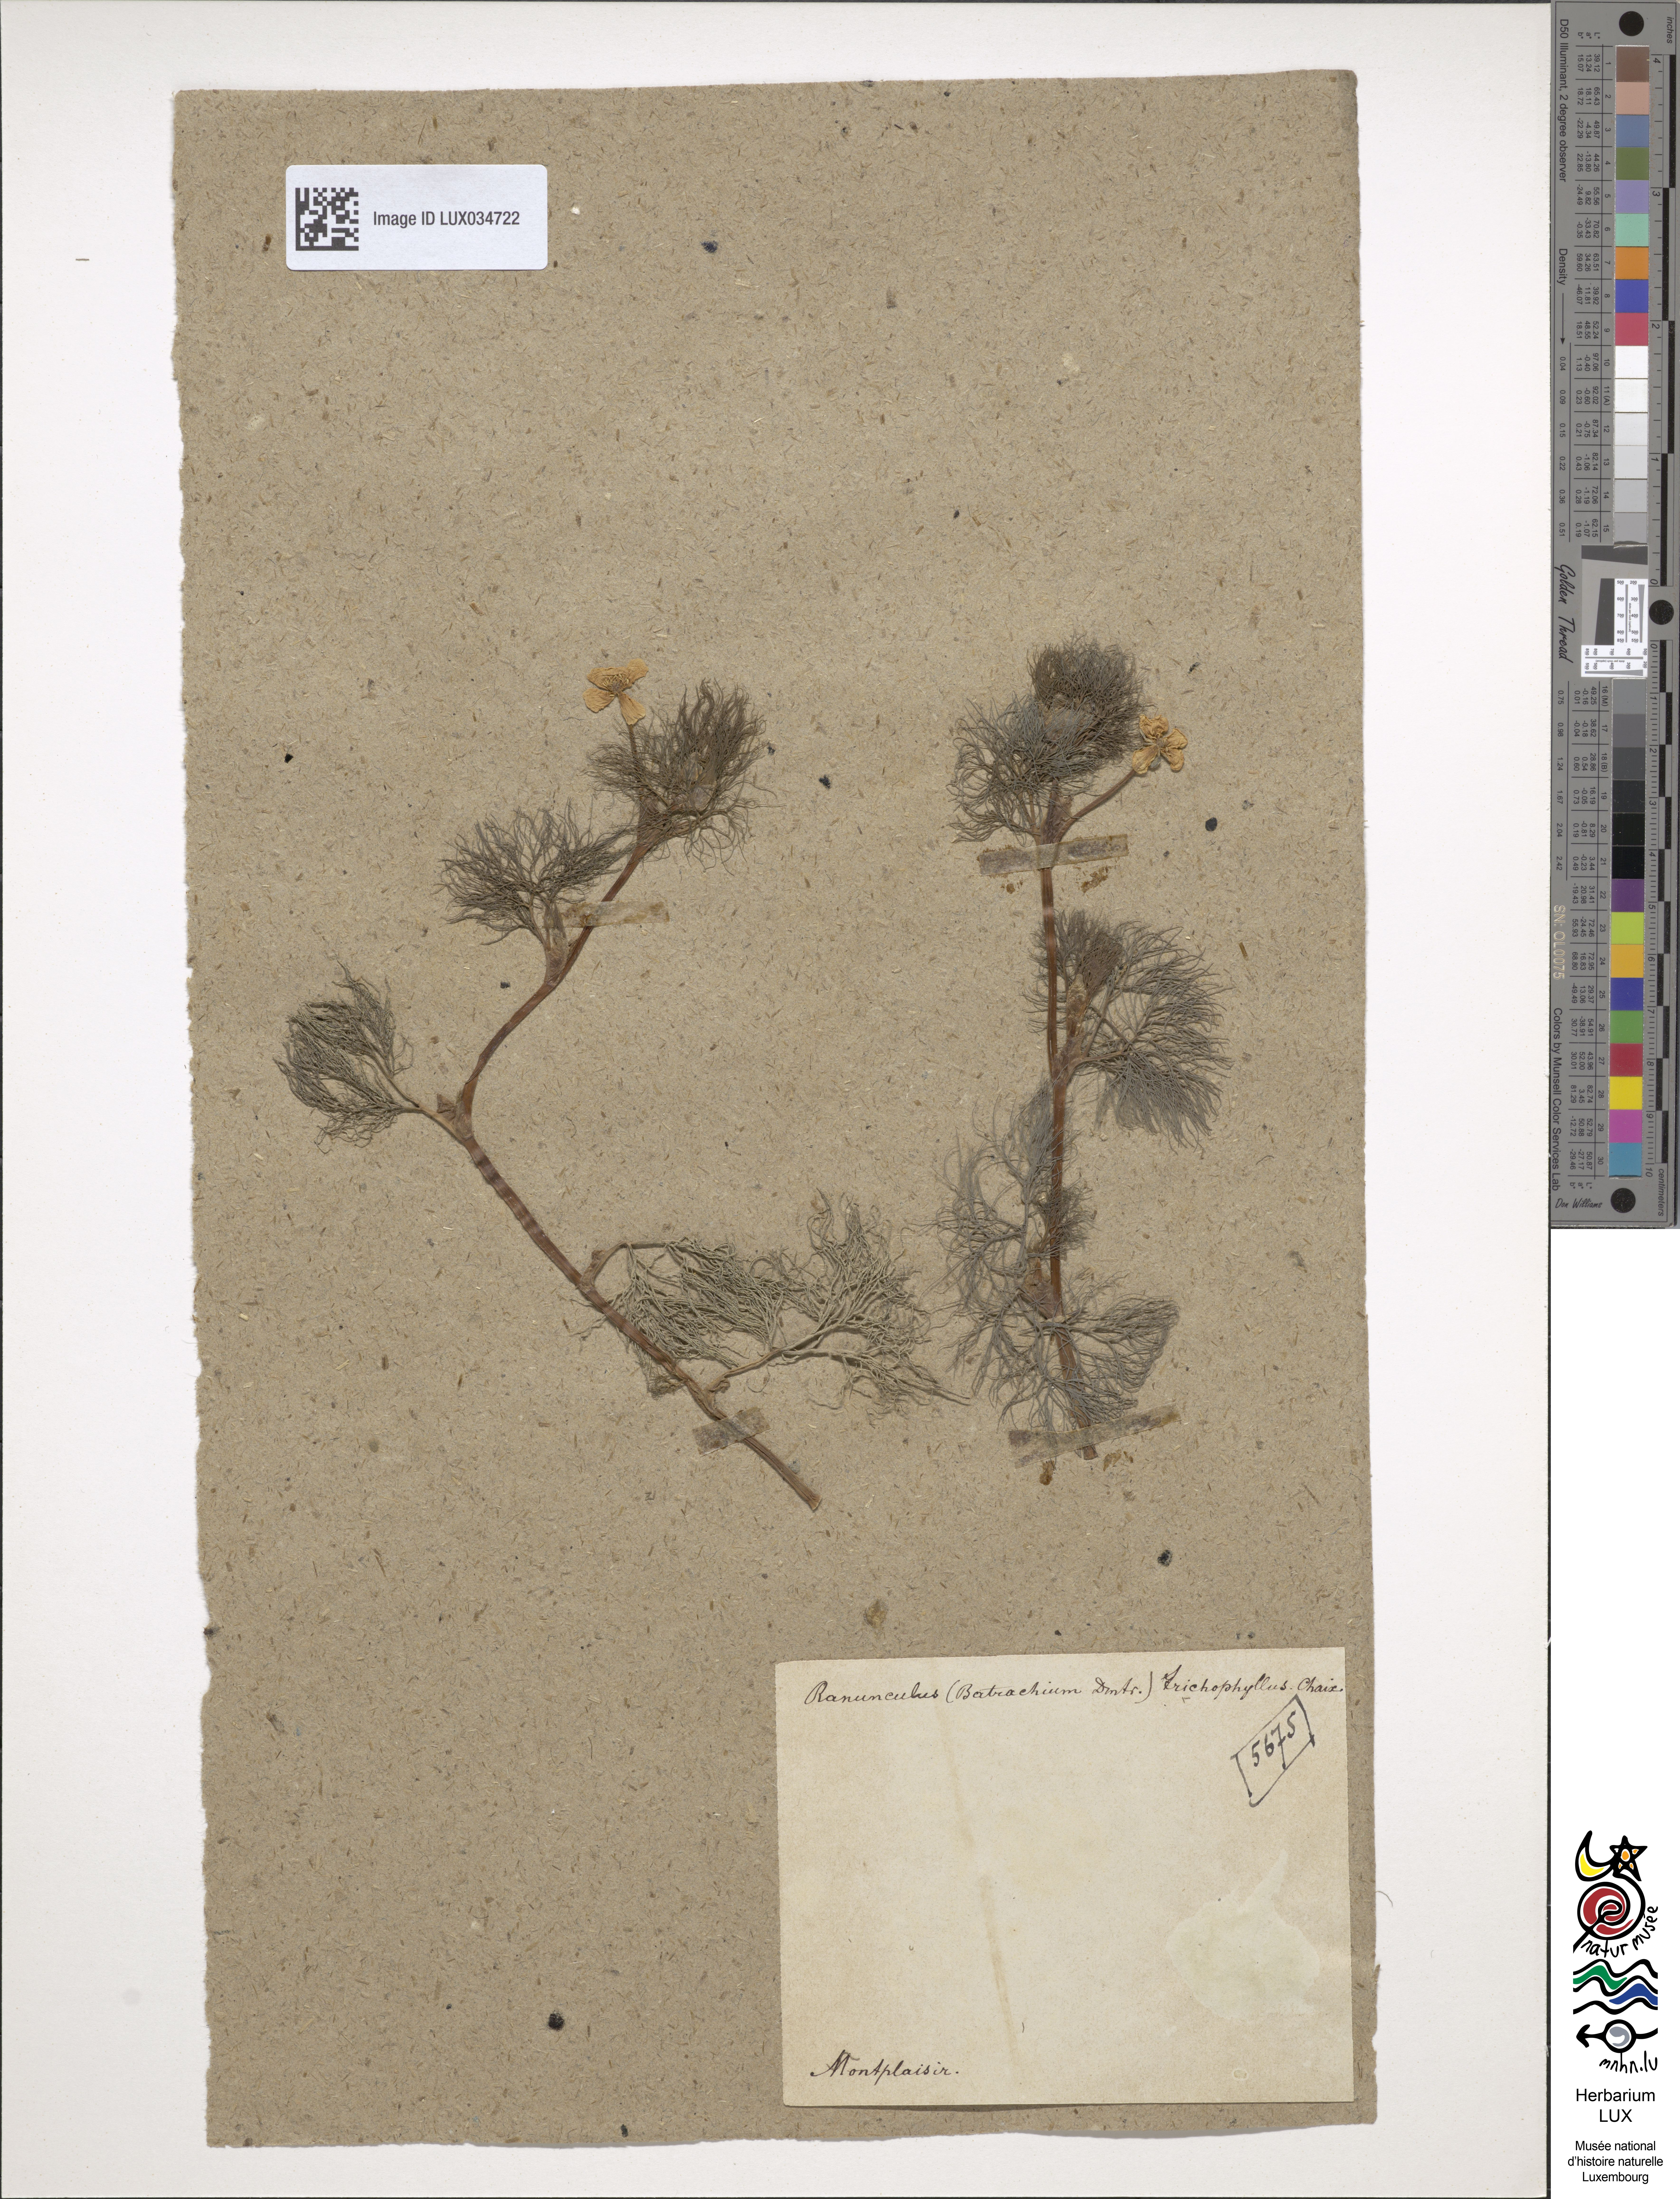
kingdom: Plantae
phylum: Tracheophyta
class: Magnoliopsida
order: Ranunculales
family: Ranunculaceae
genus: Ranunculus
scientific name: Ranunculus trichophyllus
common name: Thread-leaved water-crowfoot
